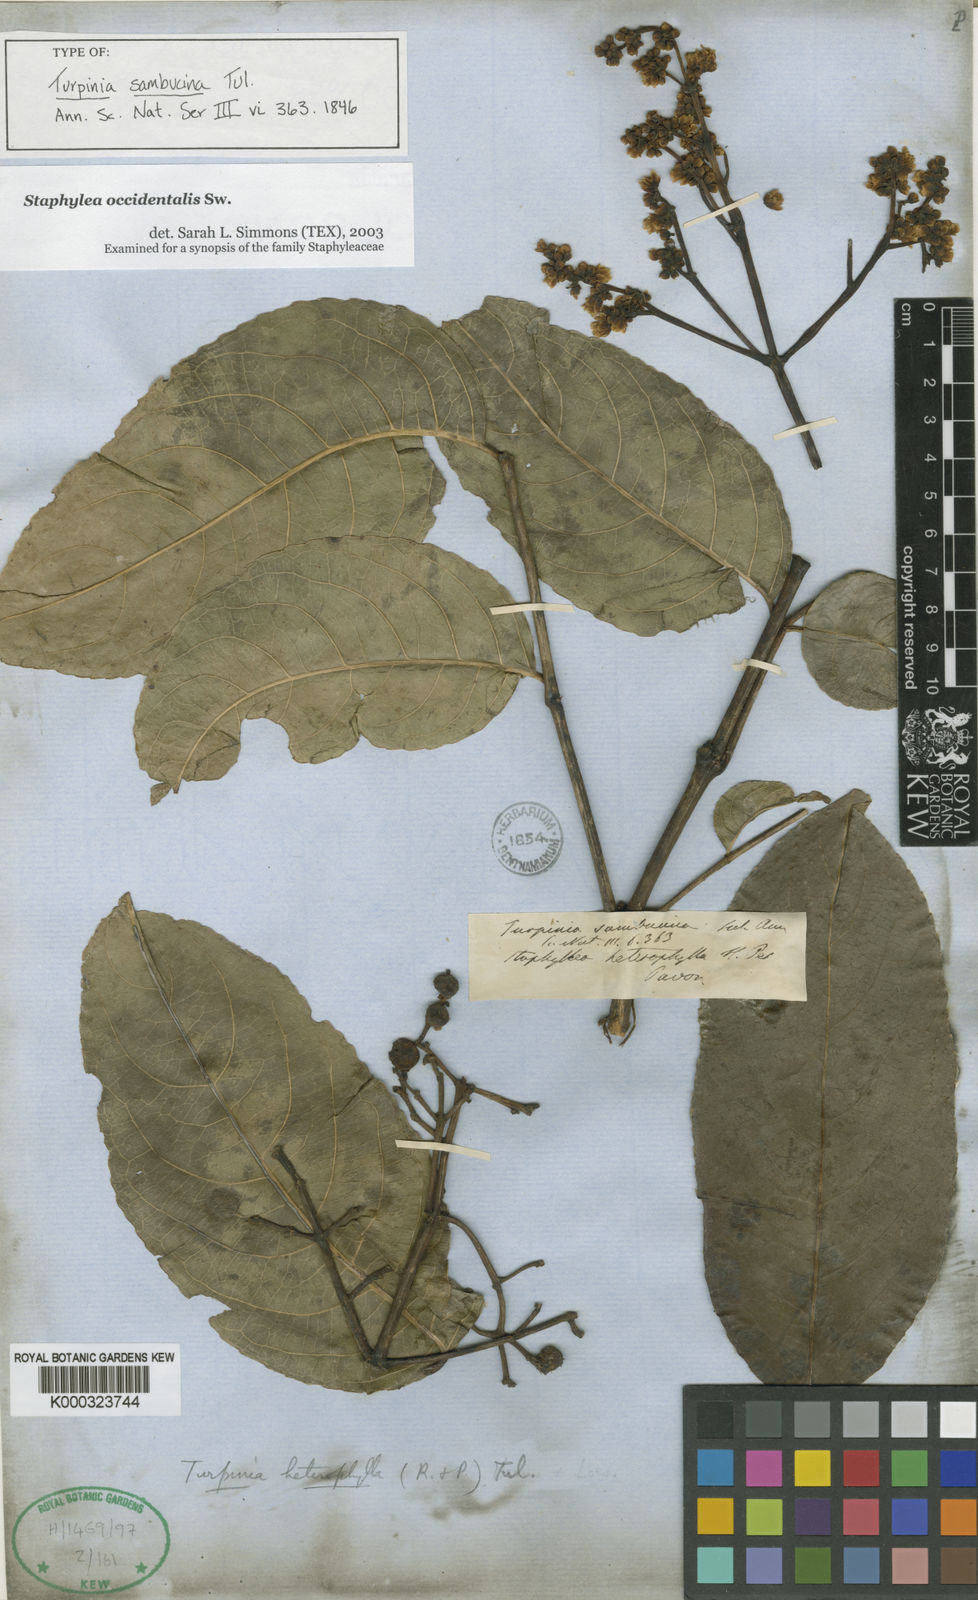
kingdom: Plantae
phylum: Tracheophyta
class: Magnoliopsida
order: Crossosomatales
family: Staphyleaceae
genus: Turpinia
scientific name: Turpinia occidentalis
